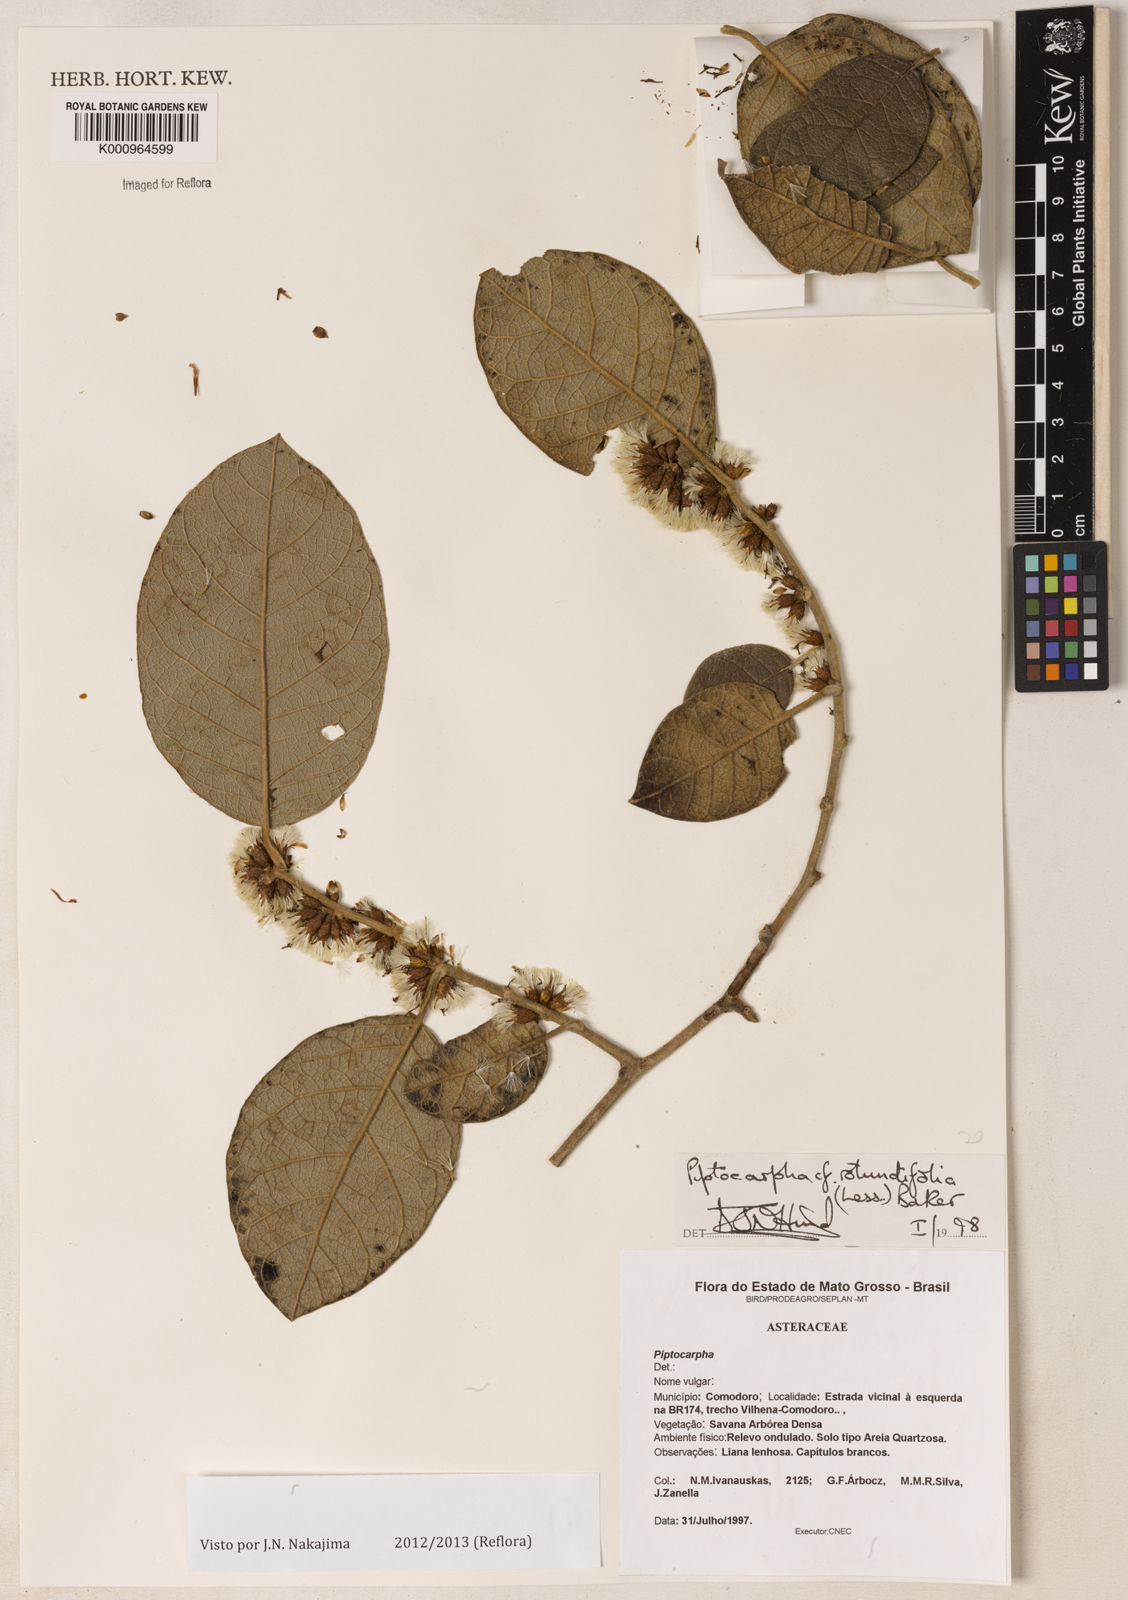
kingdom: Plantae
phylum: Tracheophyta
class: Magnoliopsida
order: Asterales
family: Asteraceae
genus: Piptocarpha
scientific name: Piptocarpha rotundifolia
